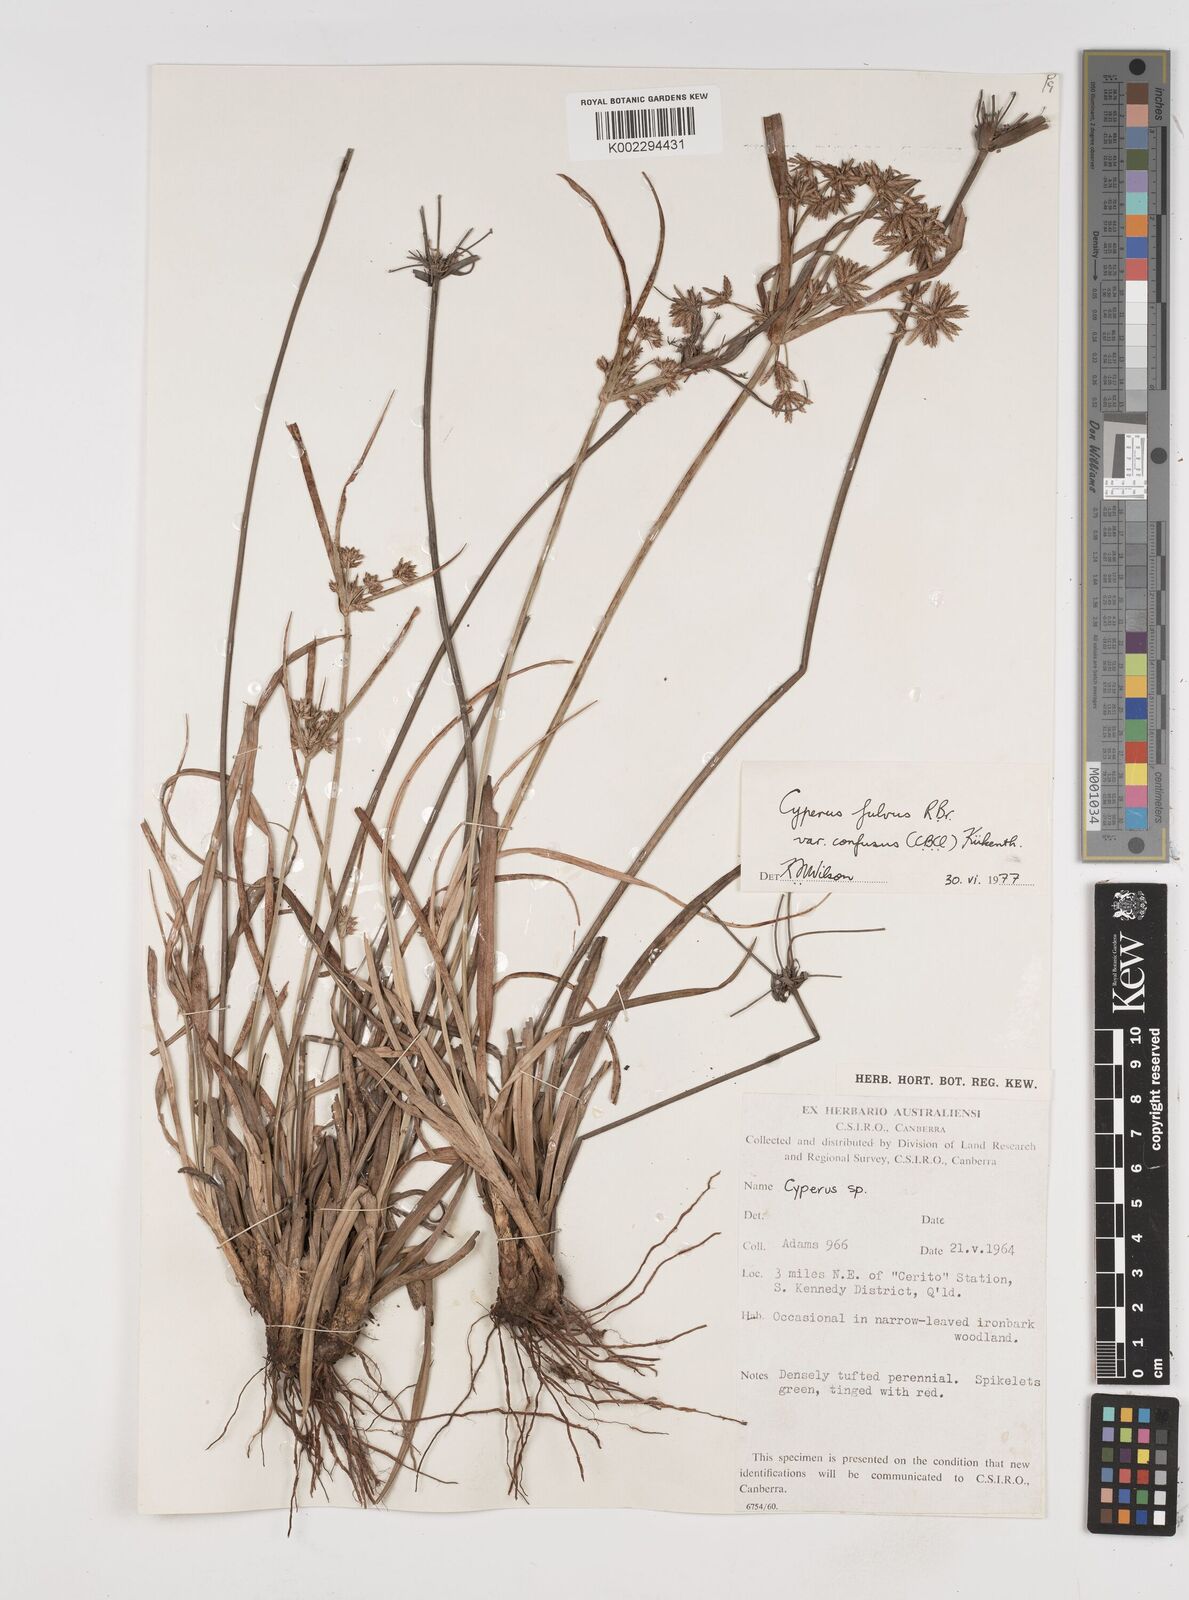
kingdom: Plantae
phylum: Tracheophyta
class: Liliopsida
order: Poales
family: Cyperaceae
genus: Cyperus
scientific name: Cyperus fulvus
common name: Sticky sedge
